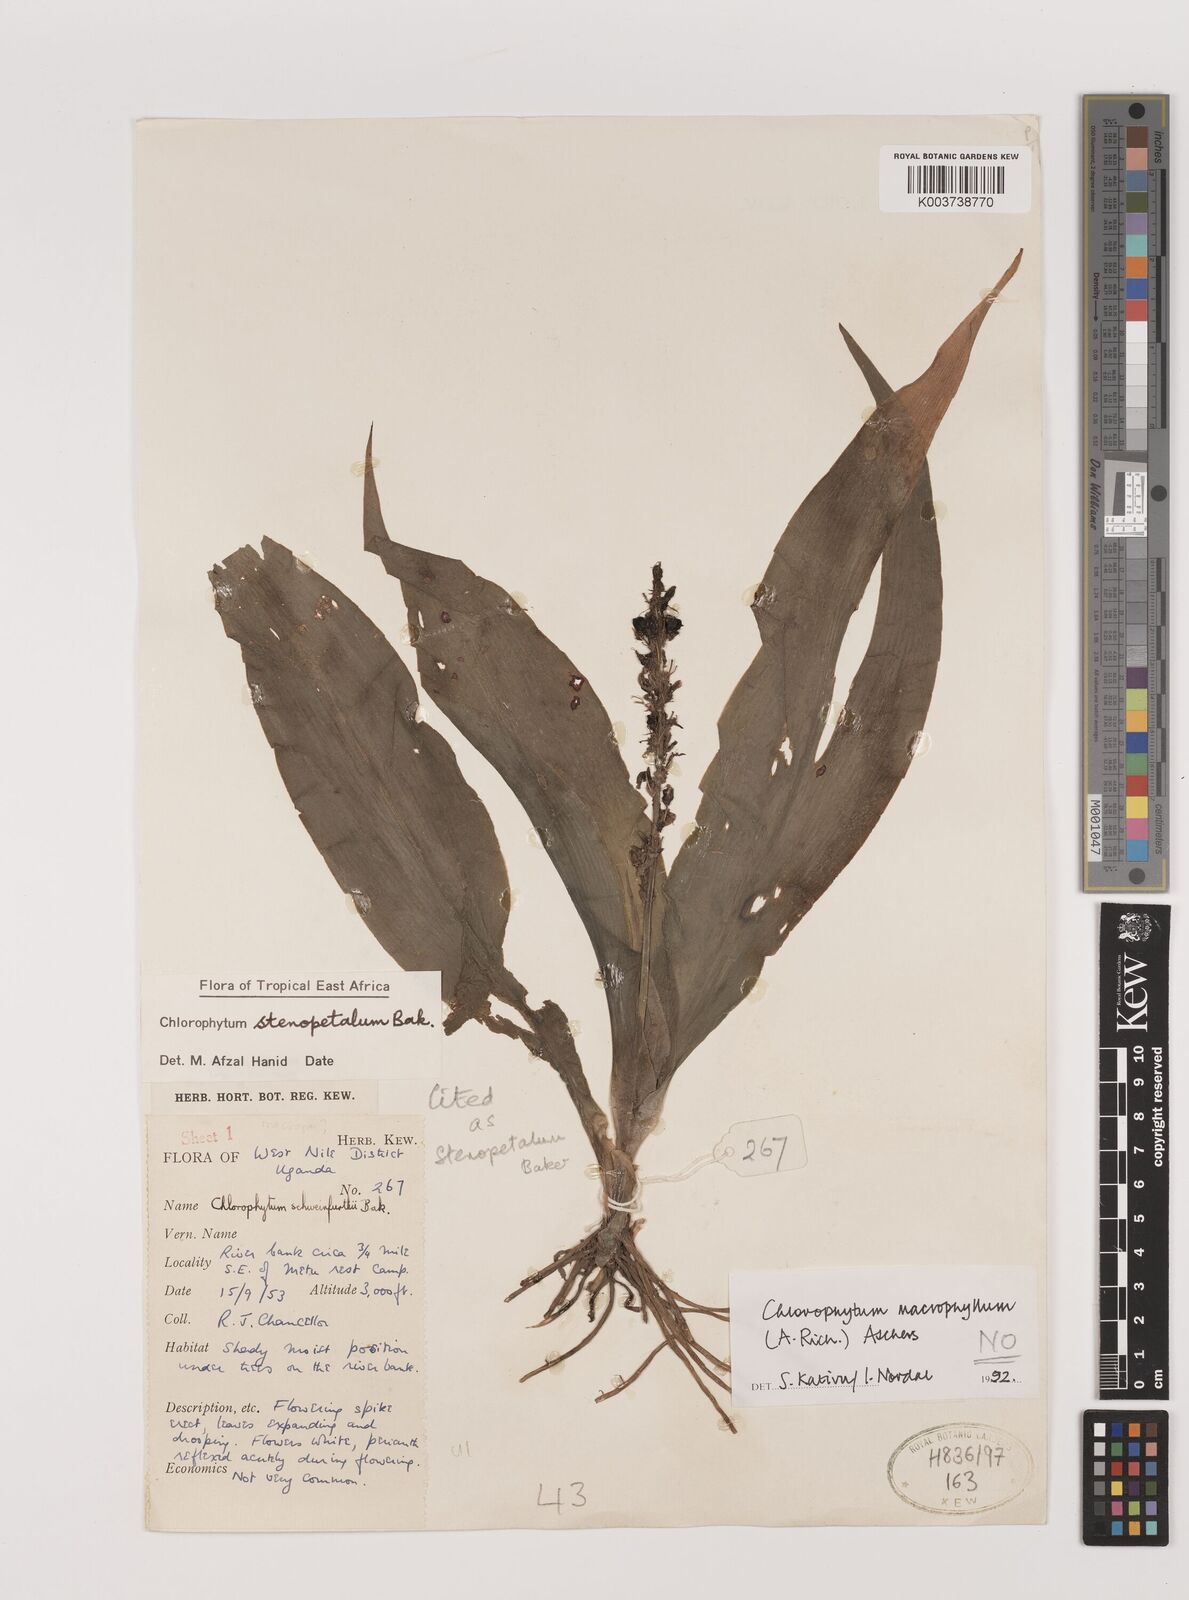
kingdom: Plantae
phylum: Tracheophyta
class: Liliopsida
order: Asparagales
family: Asparagaceae
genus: Chlorophytum
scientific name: Chlorophytum stenopetalum
